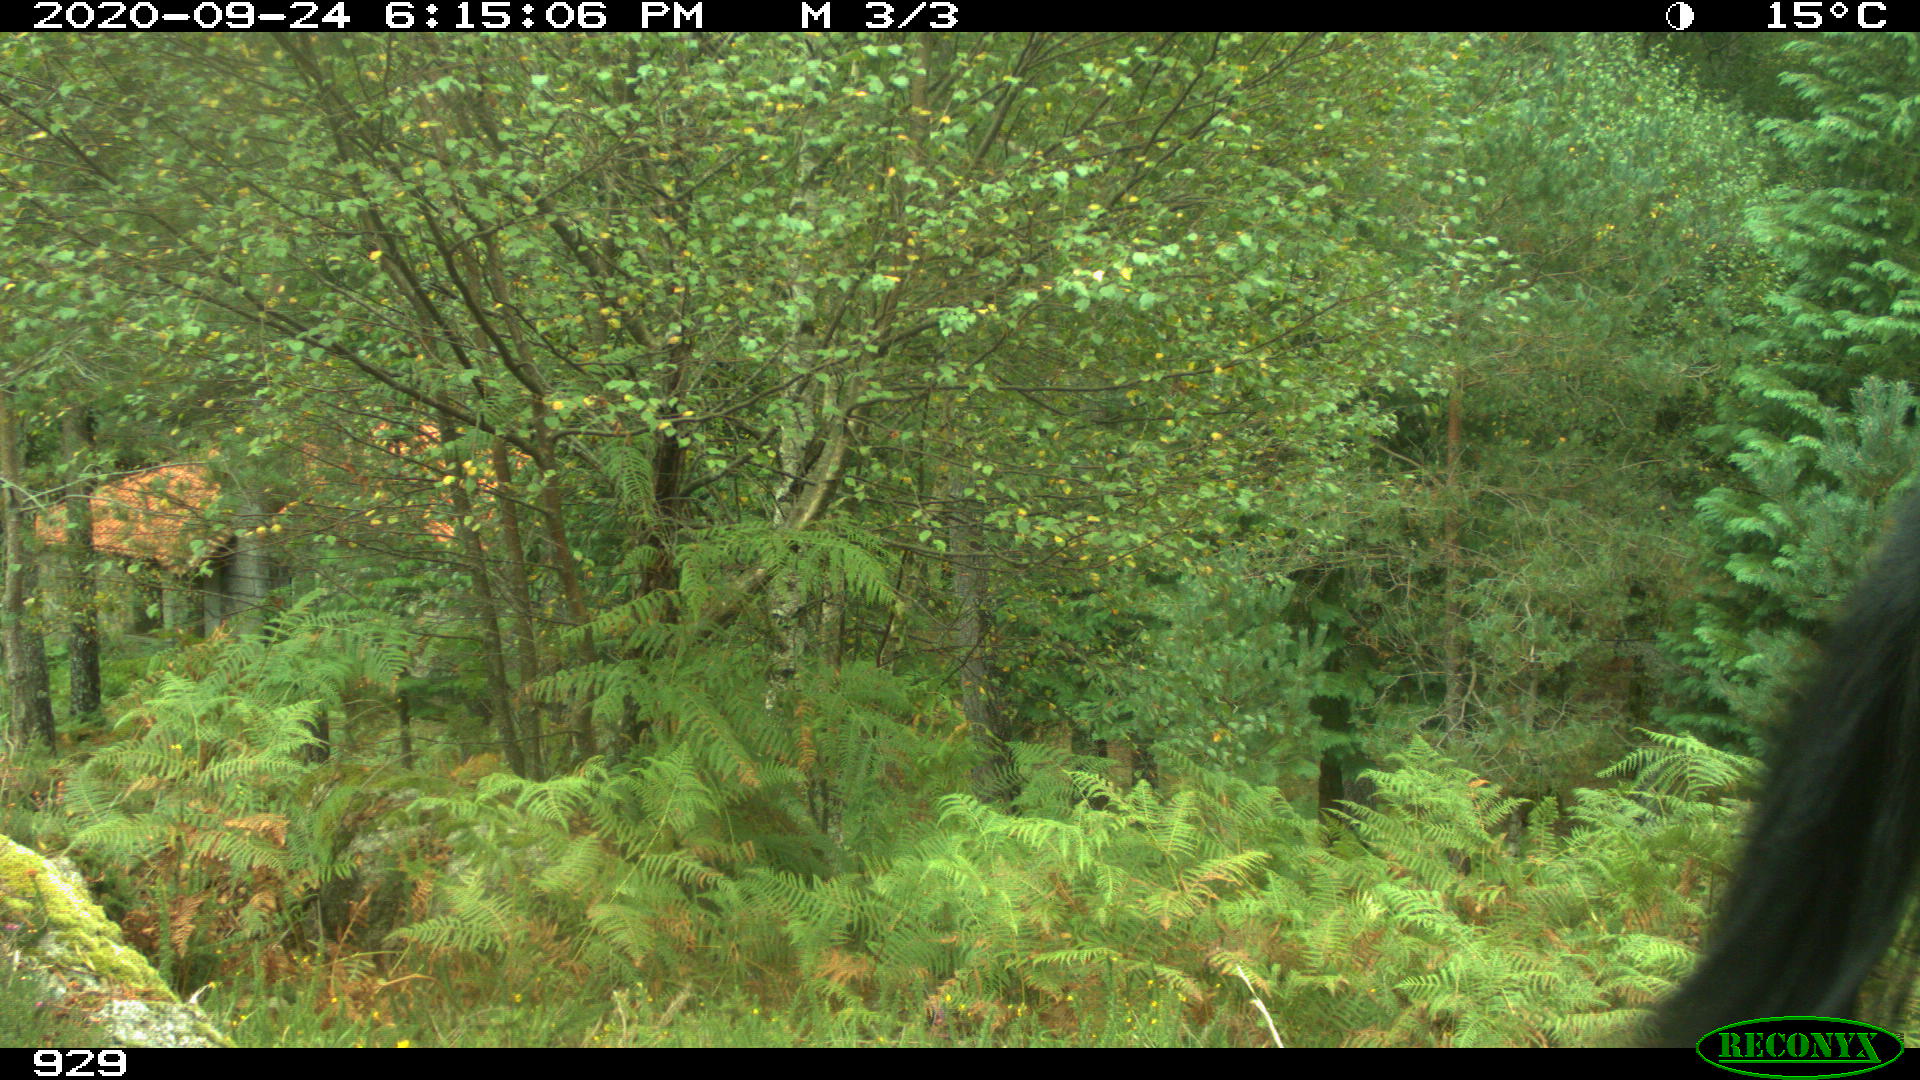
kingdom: Animalia
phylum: Chordata
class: Mammalia
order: Perissodactyla
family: Equidae
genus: Equus
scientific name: Equus caballus
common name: Horse
